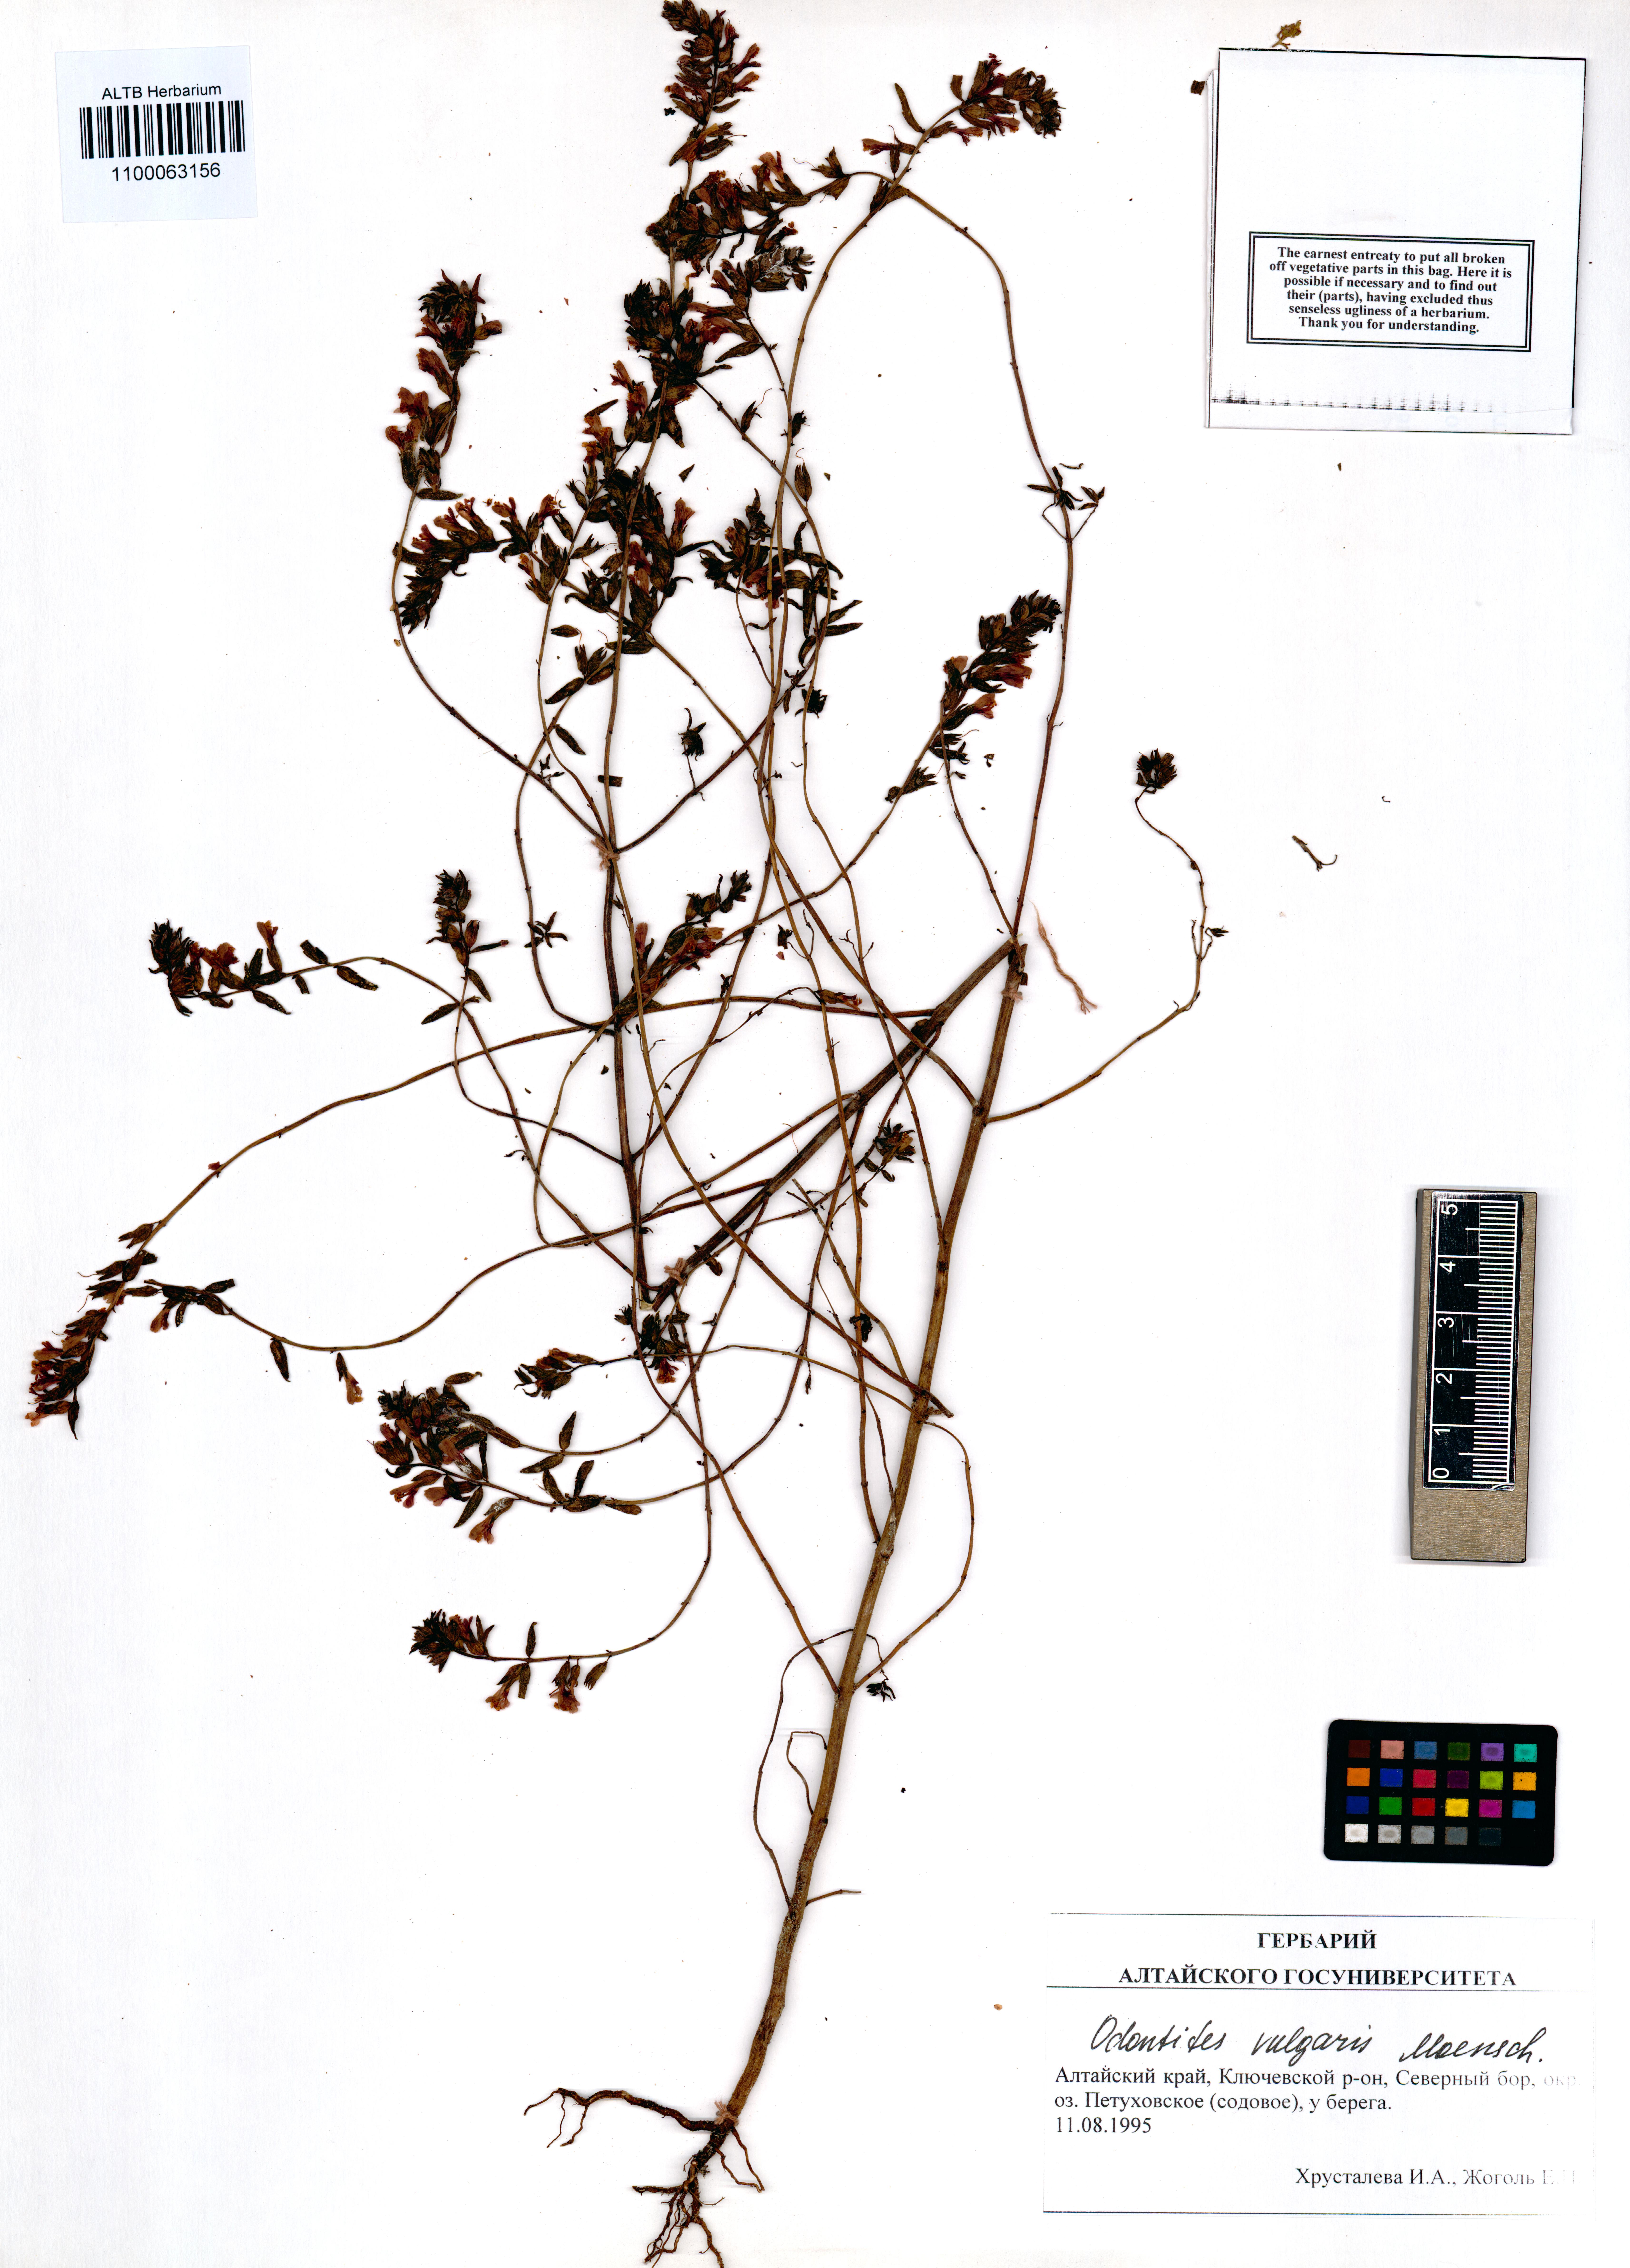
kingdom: Plantae
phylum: Tracheophyta
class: Magnoliopsida
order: Lamiales
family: Orobanchaceae
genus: Odontites
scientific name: Odontites vulgaris
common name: Broomrape
